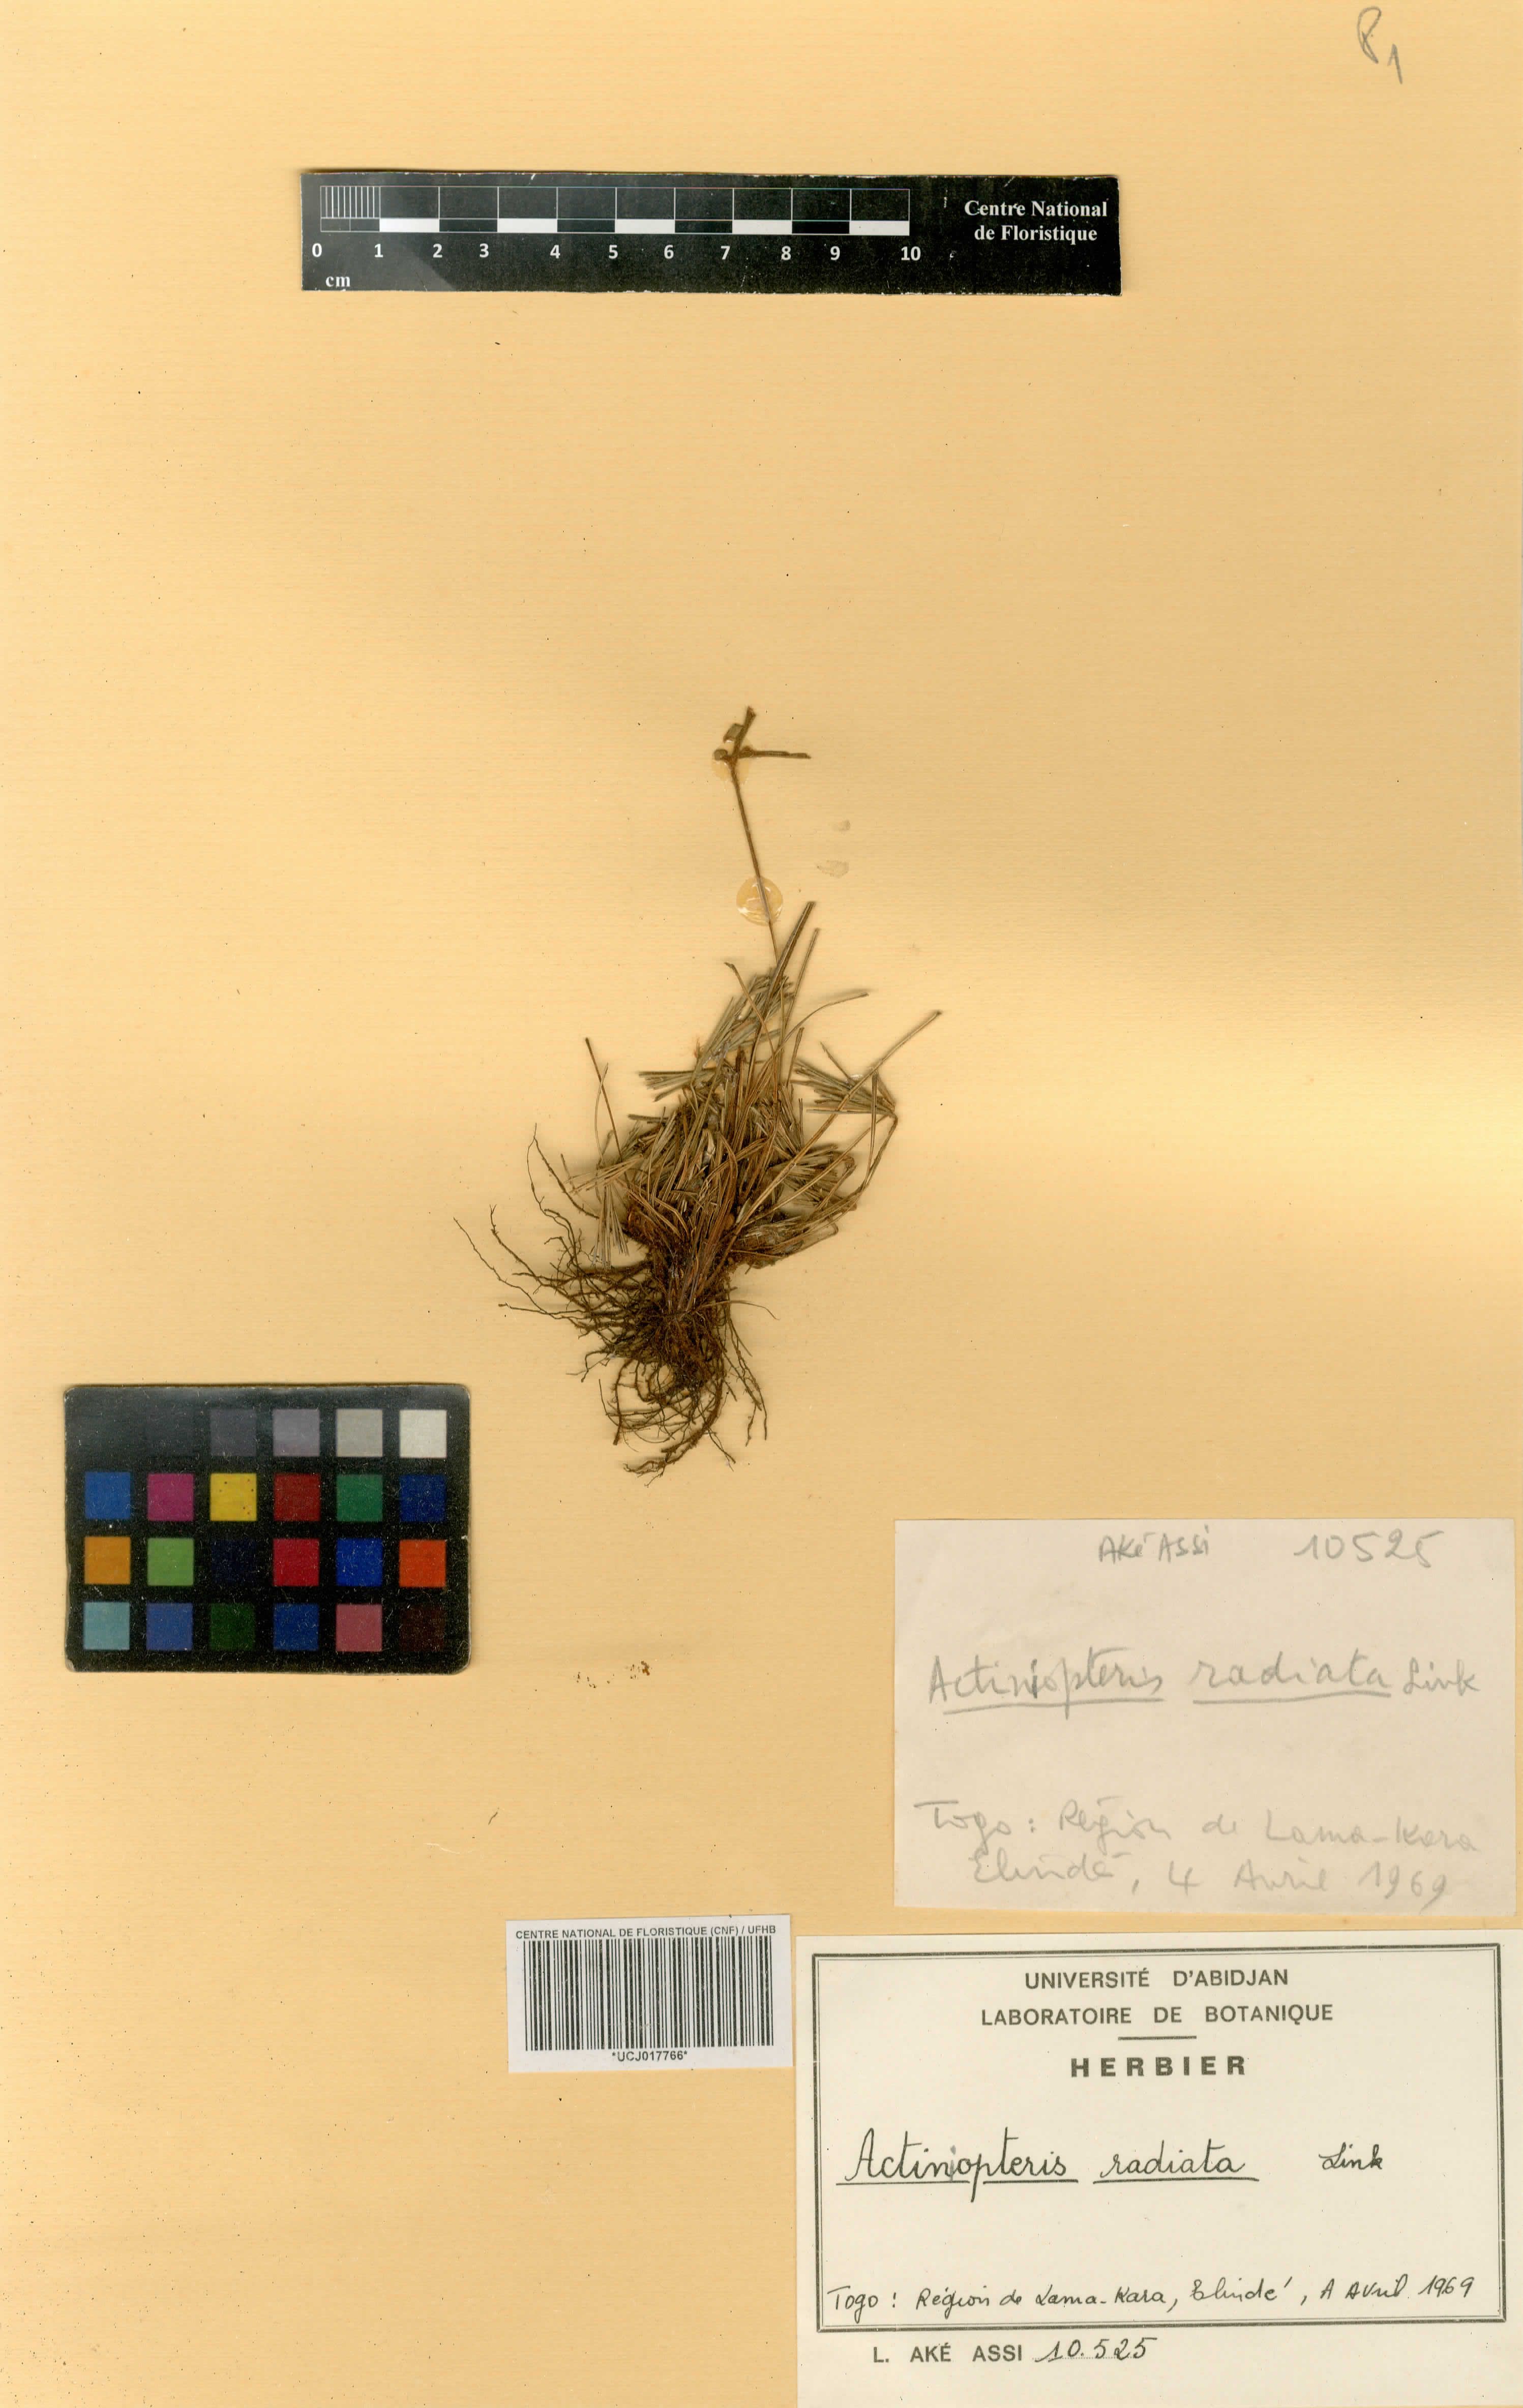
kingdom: Plantae
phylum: Tracheophyta
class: Polypodiopsida
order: Polypodiales
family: Pteridaceae
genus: Actiniopteris
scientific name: Actiniopteris radiata
